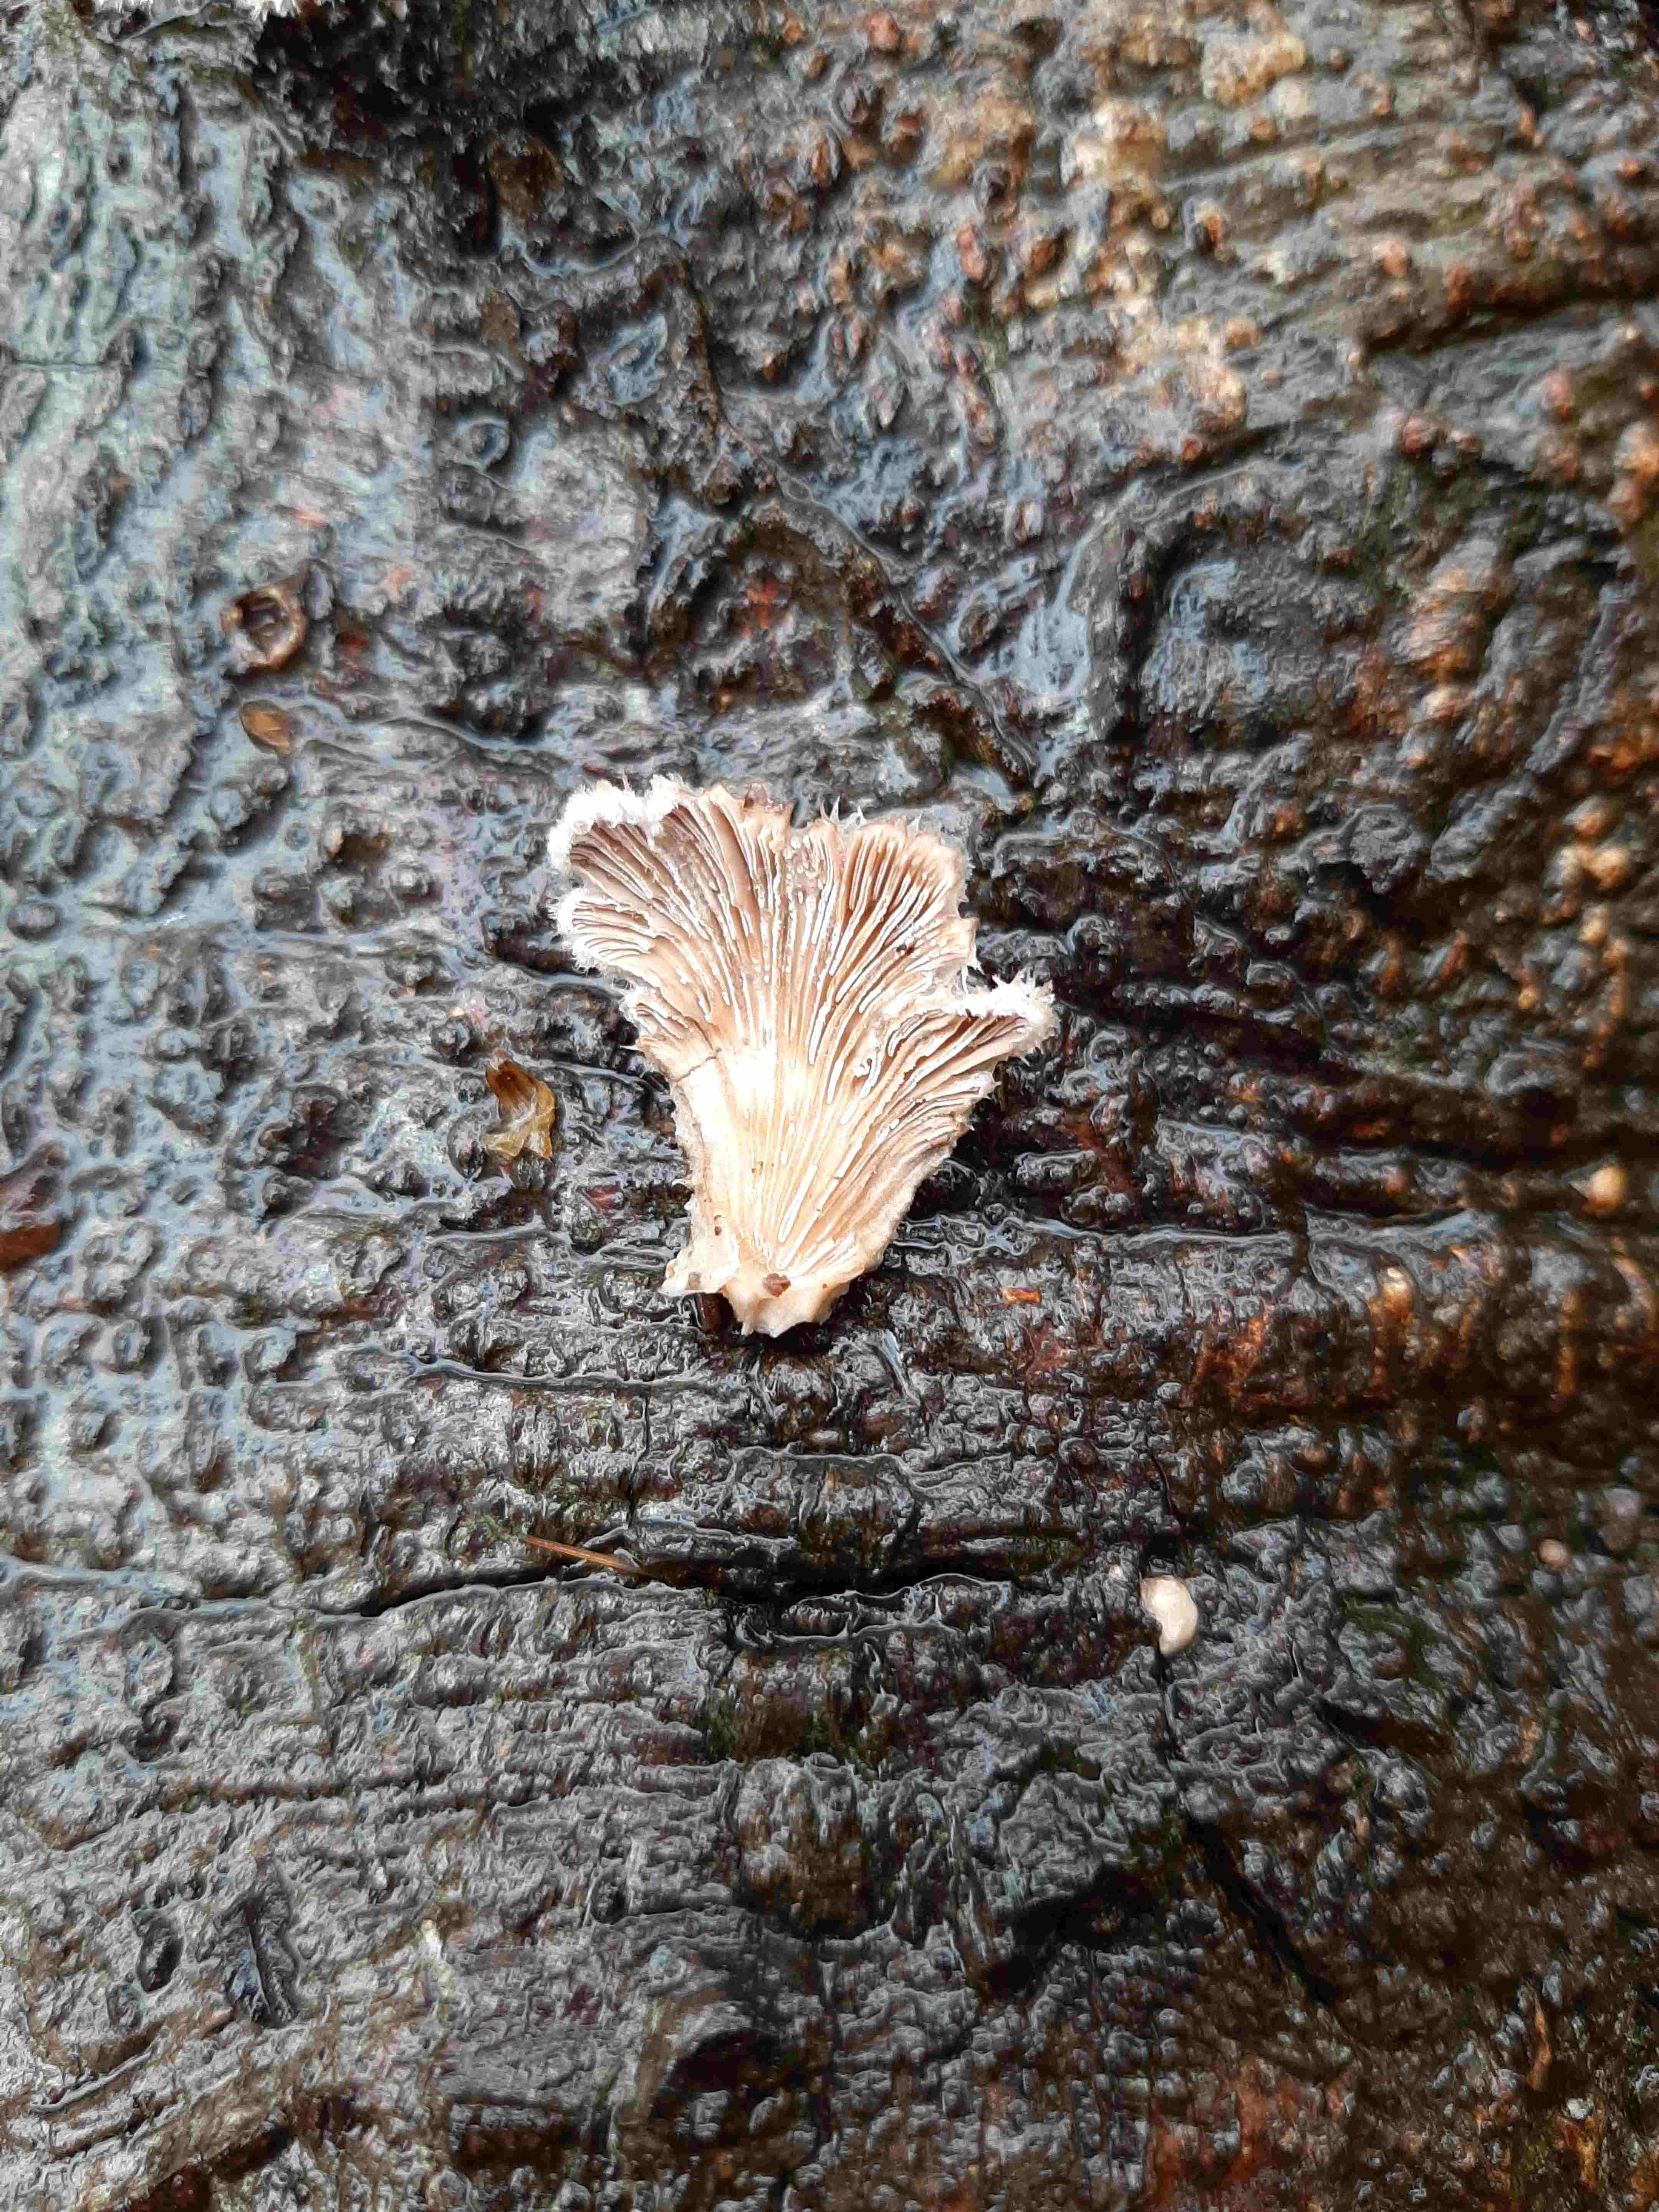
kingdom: Fungi
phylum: Basidiomycota
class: Agaricomycetes
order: Agaricales
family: Schizophyllaceae
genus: Schizophyllum
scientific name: Schizophyllum commune
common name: kløvblad
